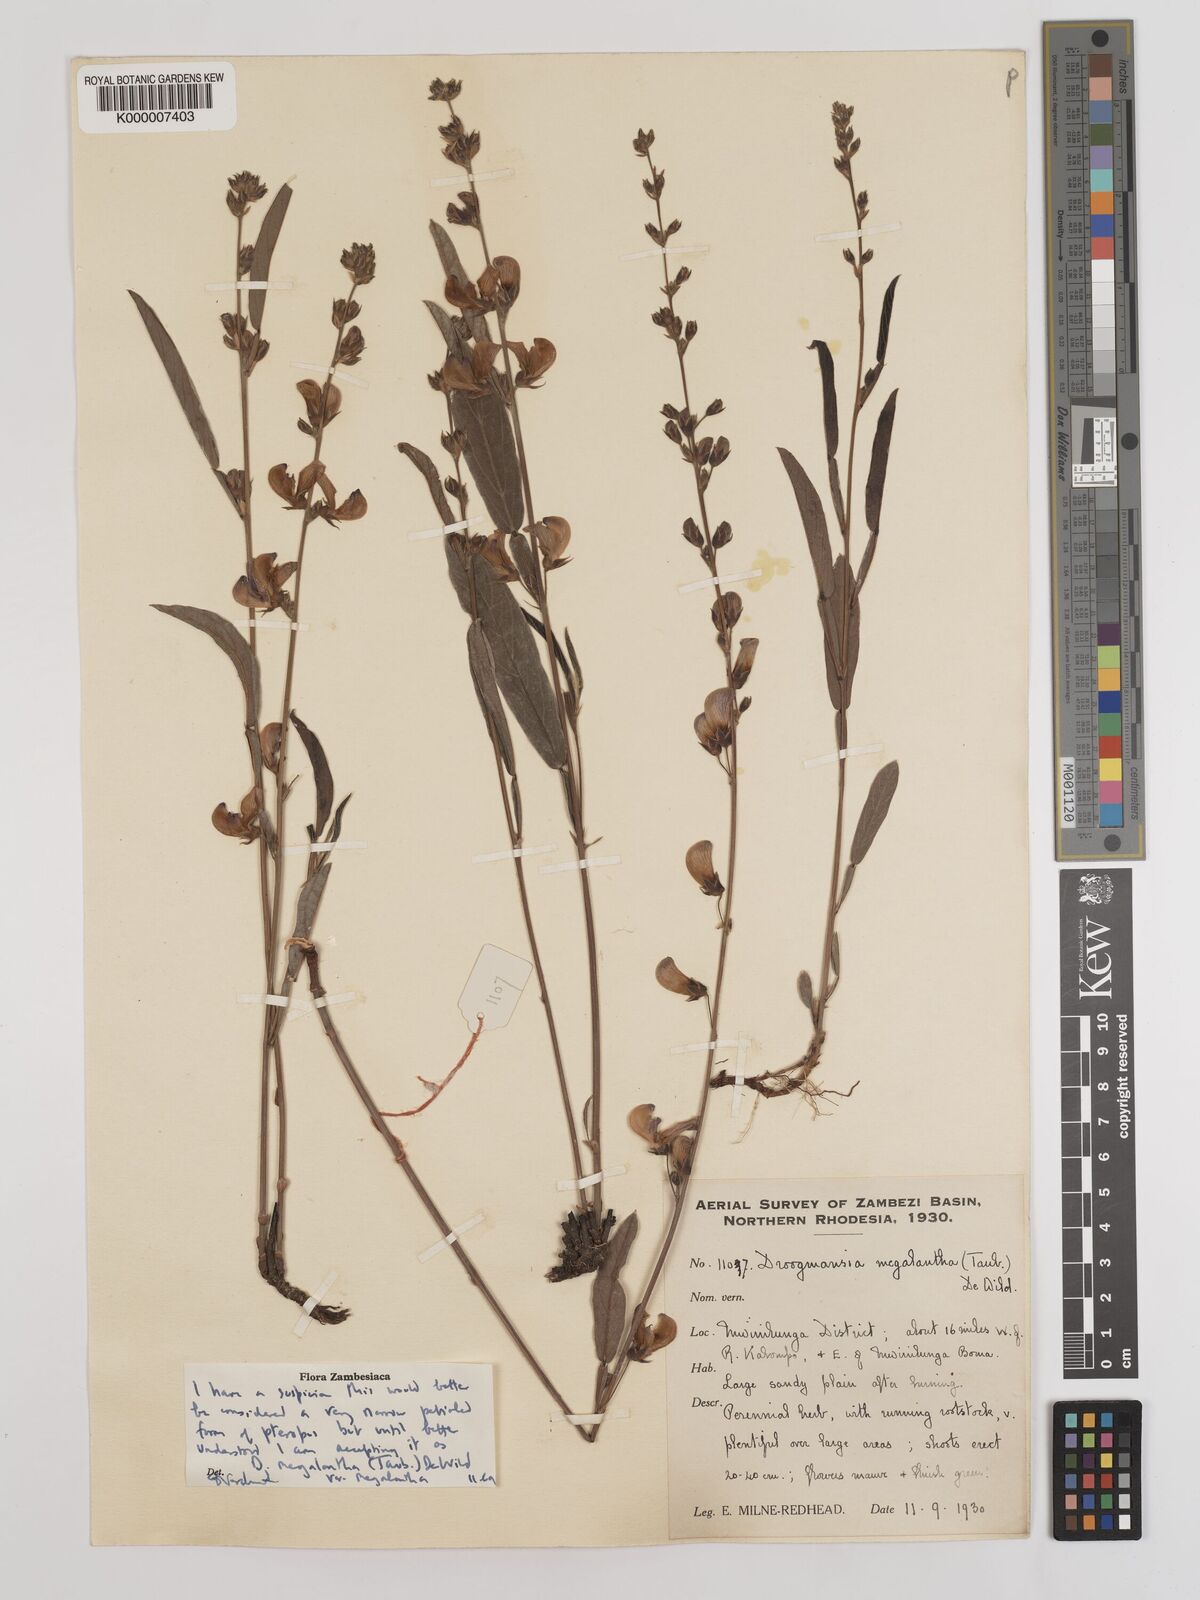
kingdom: Plantae
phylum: Tracheophyta
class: Magnoliopsida
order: Fabales
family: Fabaceae
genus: Droogmansia
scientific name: Droogmansia megalantha
